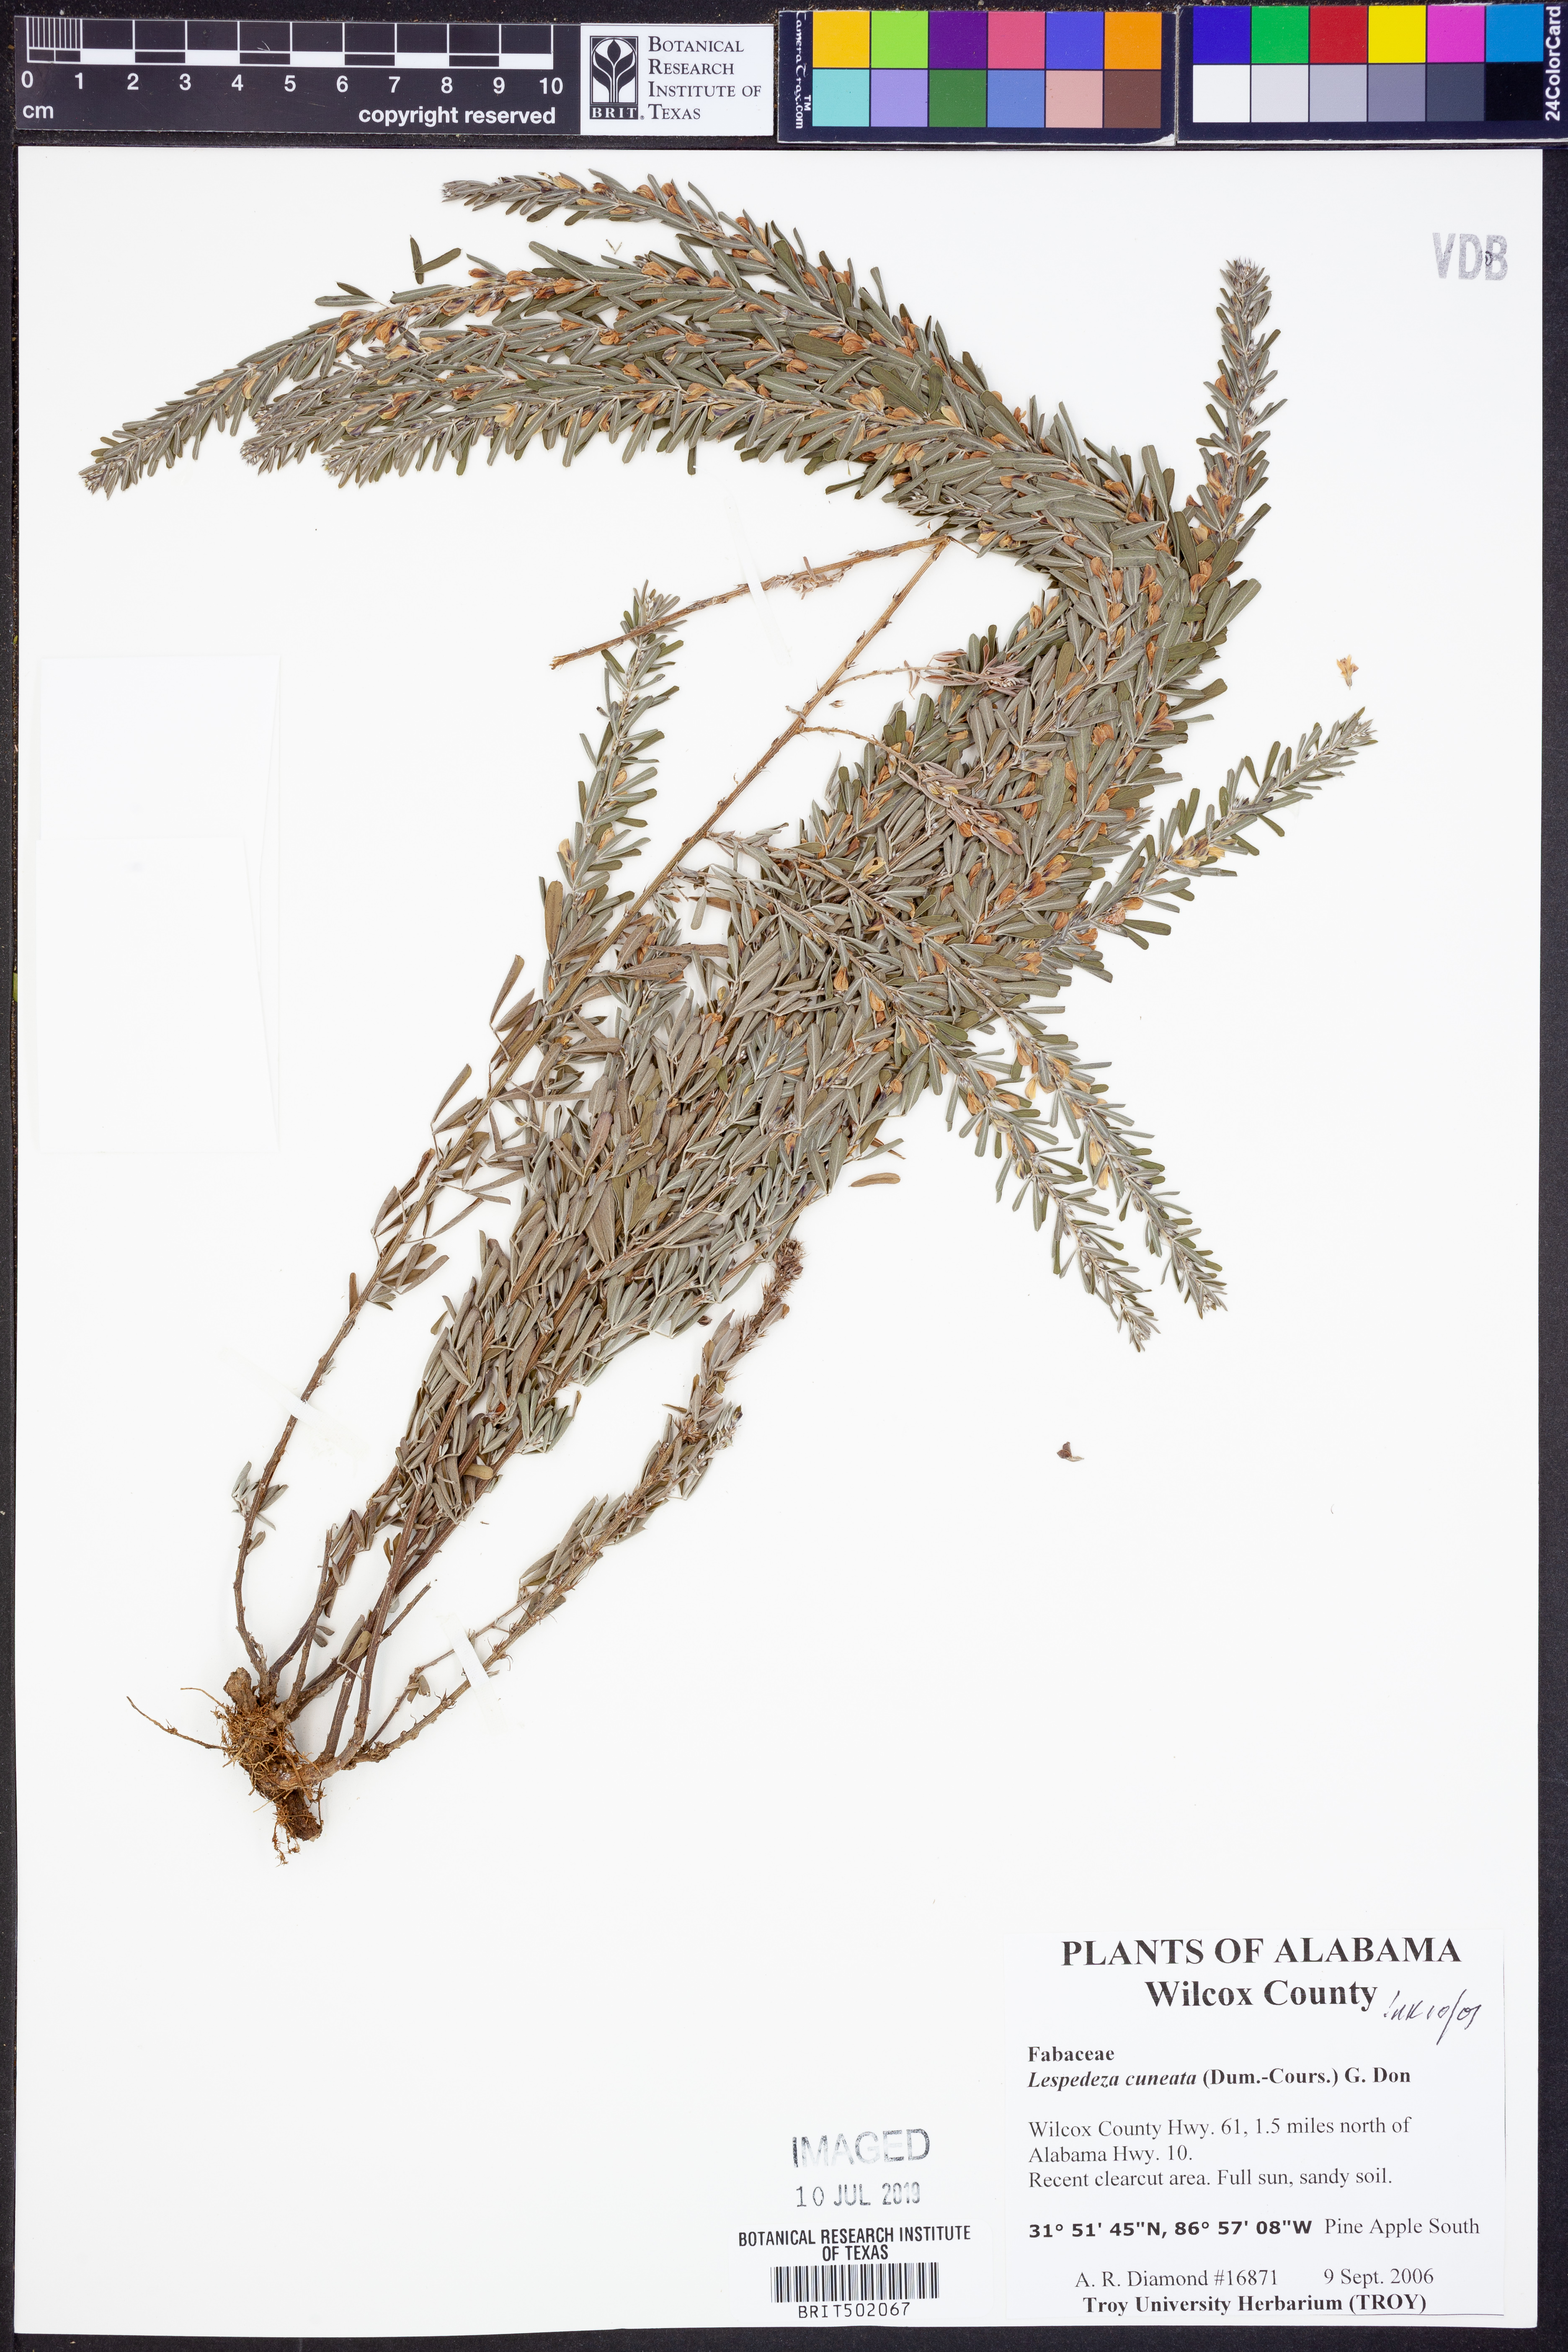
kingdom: Plantae
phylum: Tracheophyta
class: Magnoliopsida
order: Fabales
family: Fabaceae
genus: Lespedeza
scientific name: Lespedeza cuneata
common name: Chinese bush-clover
